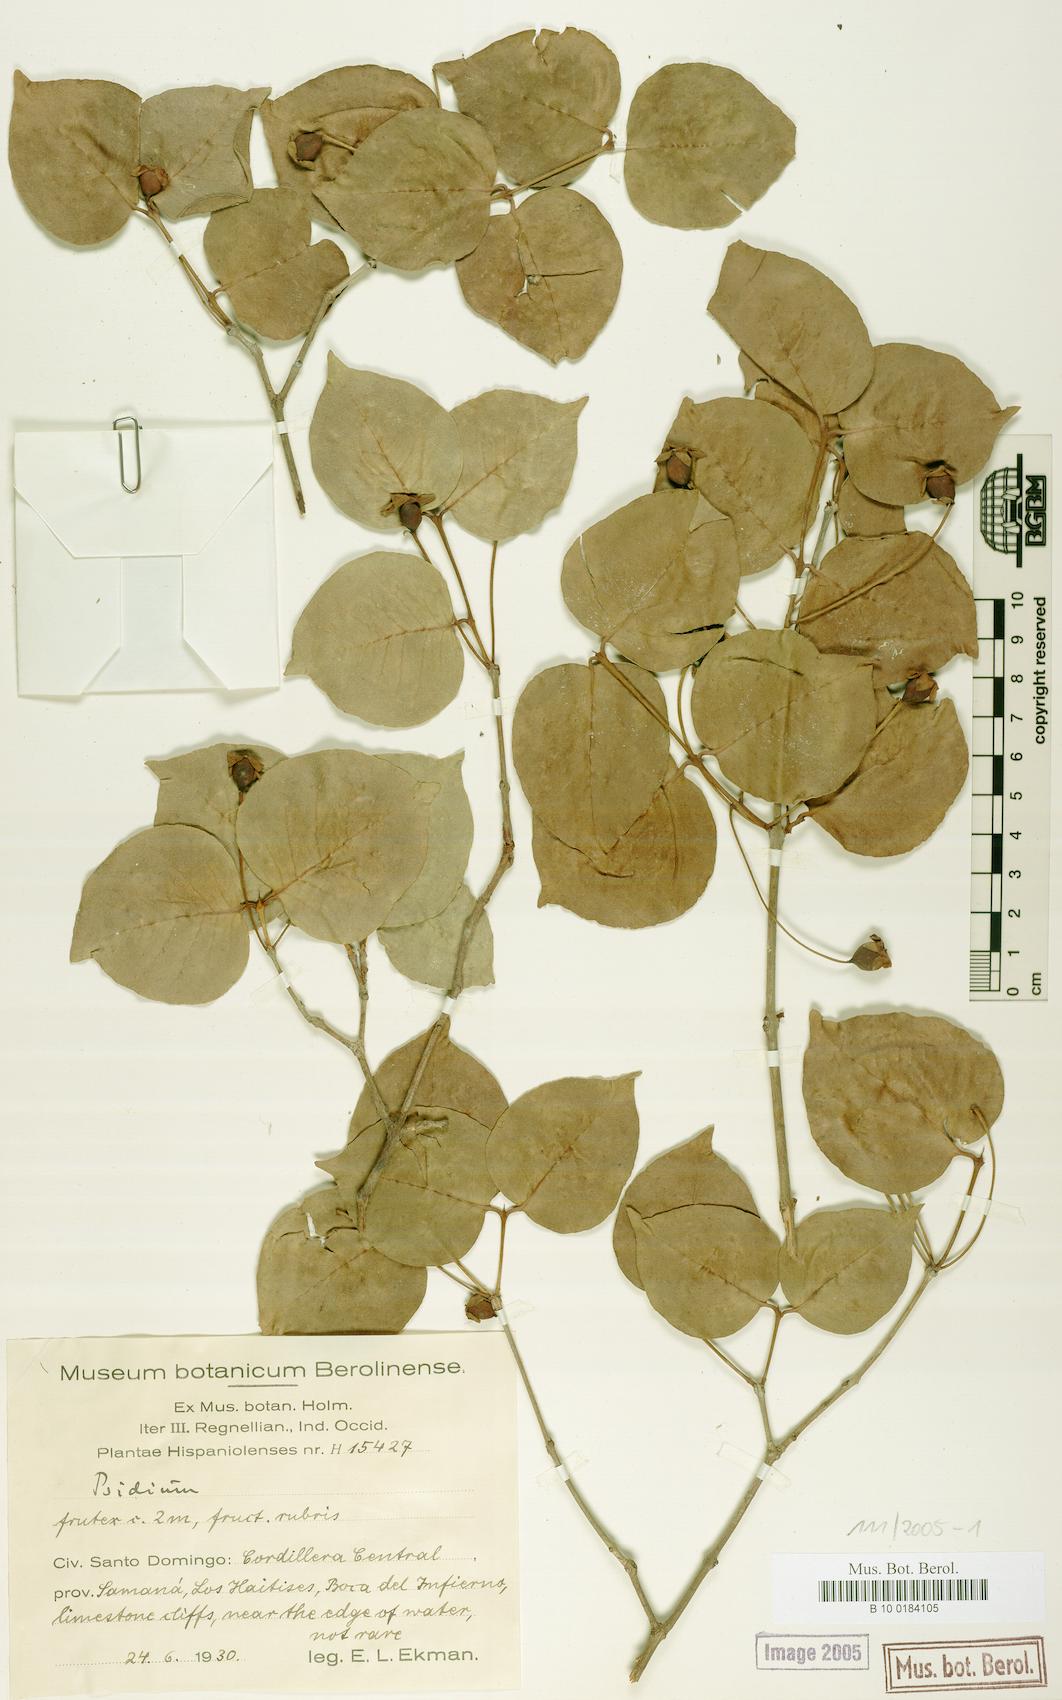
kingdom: Plantae
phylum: Tracheophyta
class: Magnoliopsida
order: Myrtales
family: Myrtaceae
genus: Mosiera
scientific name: Mosiera cuspidata
